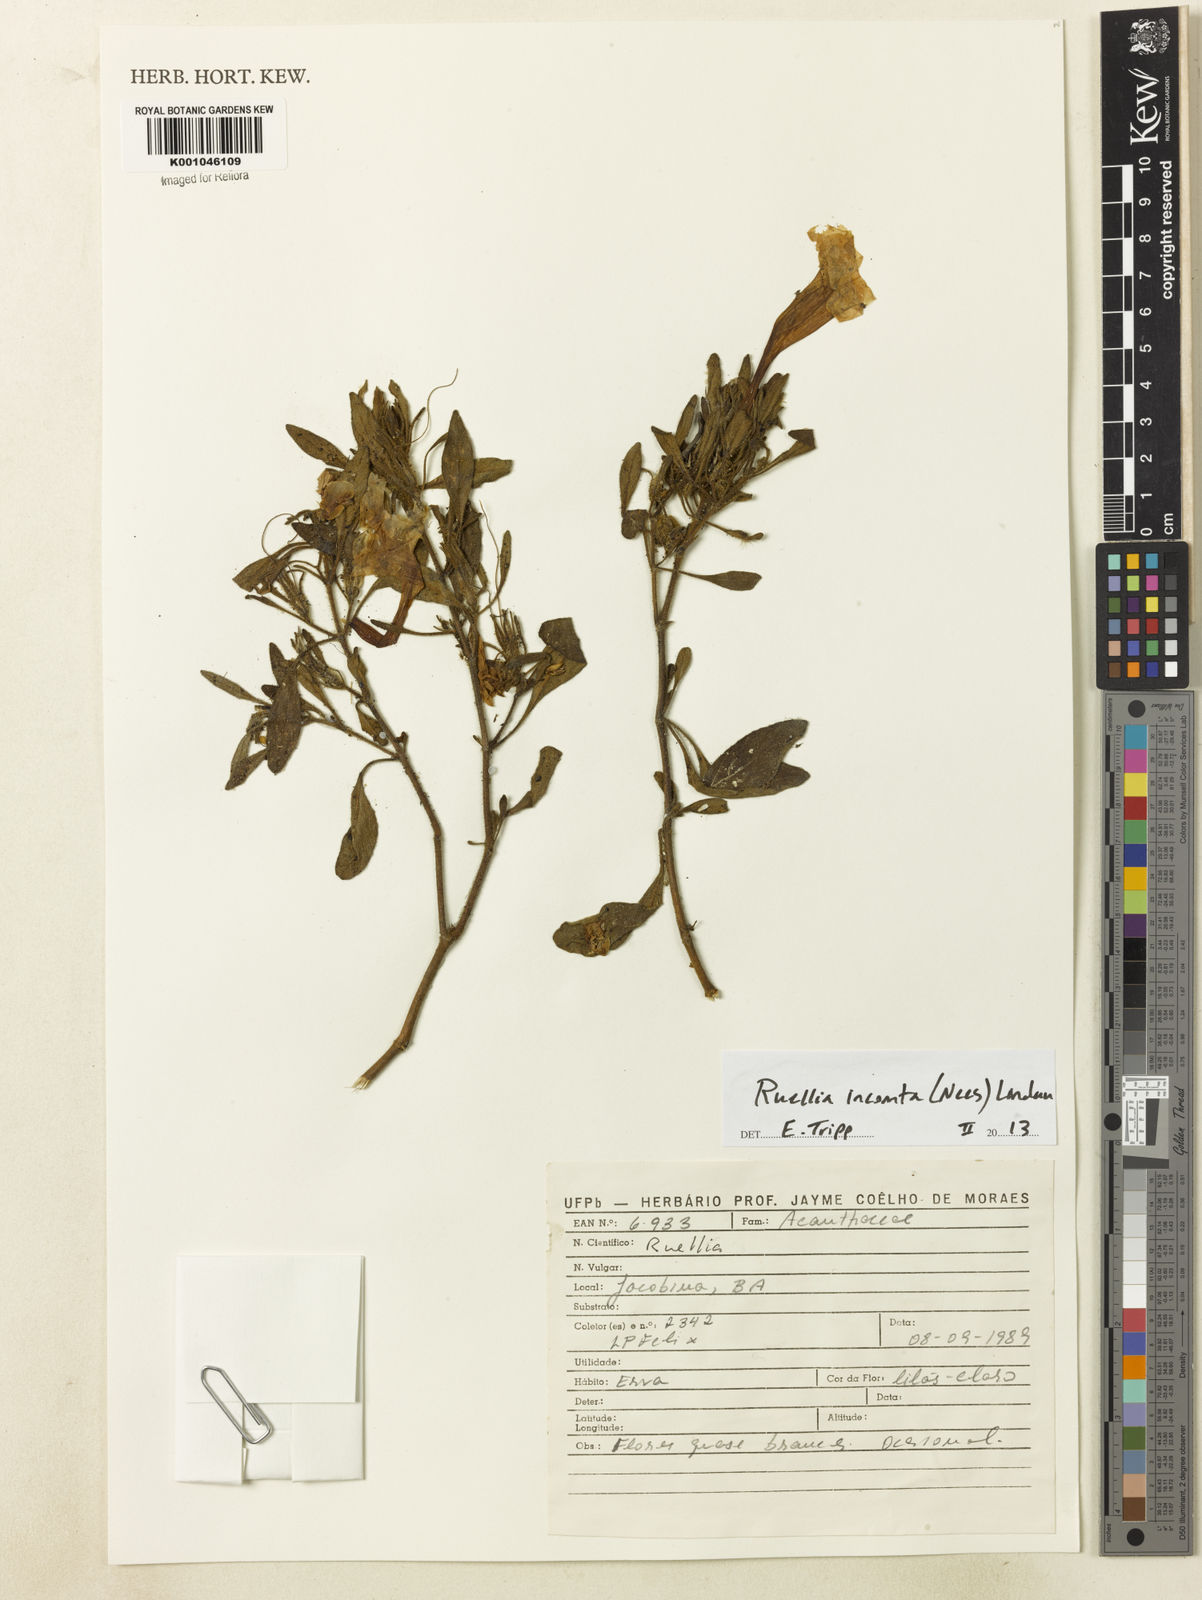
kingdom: Plantae
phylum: Tracheophyta
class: Magnoliopsida
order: Lamiales
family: Acanthaceae
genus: Ruellia
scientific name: Ruellia
